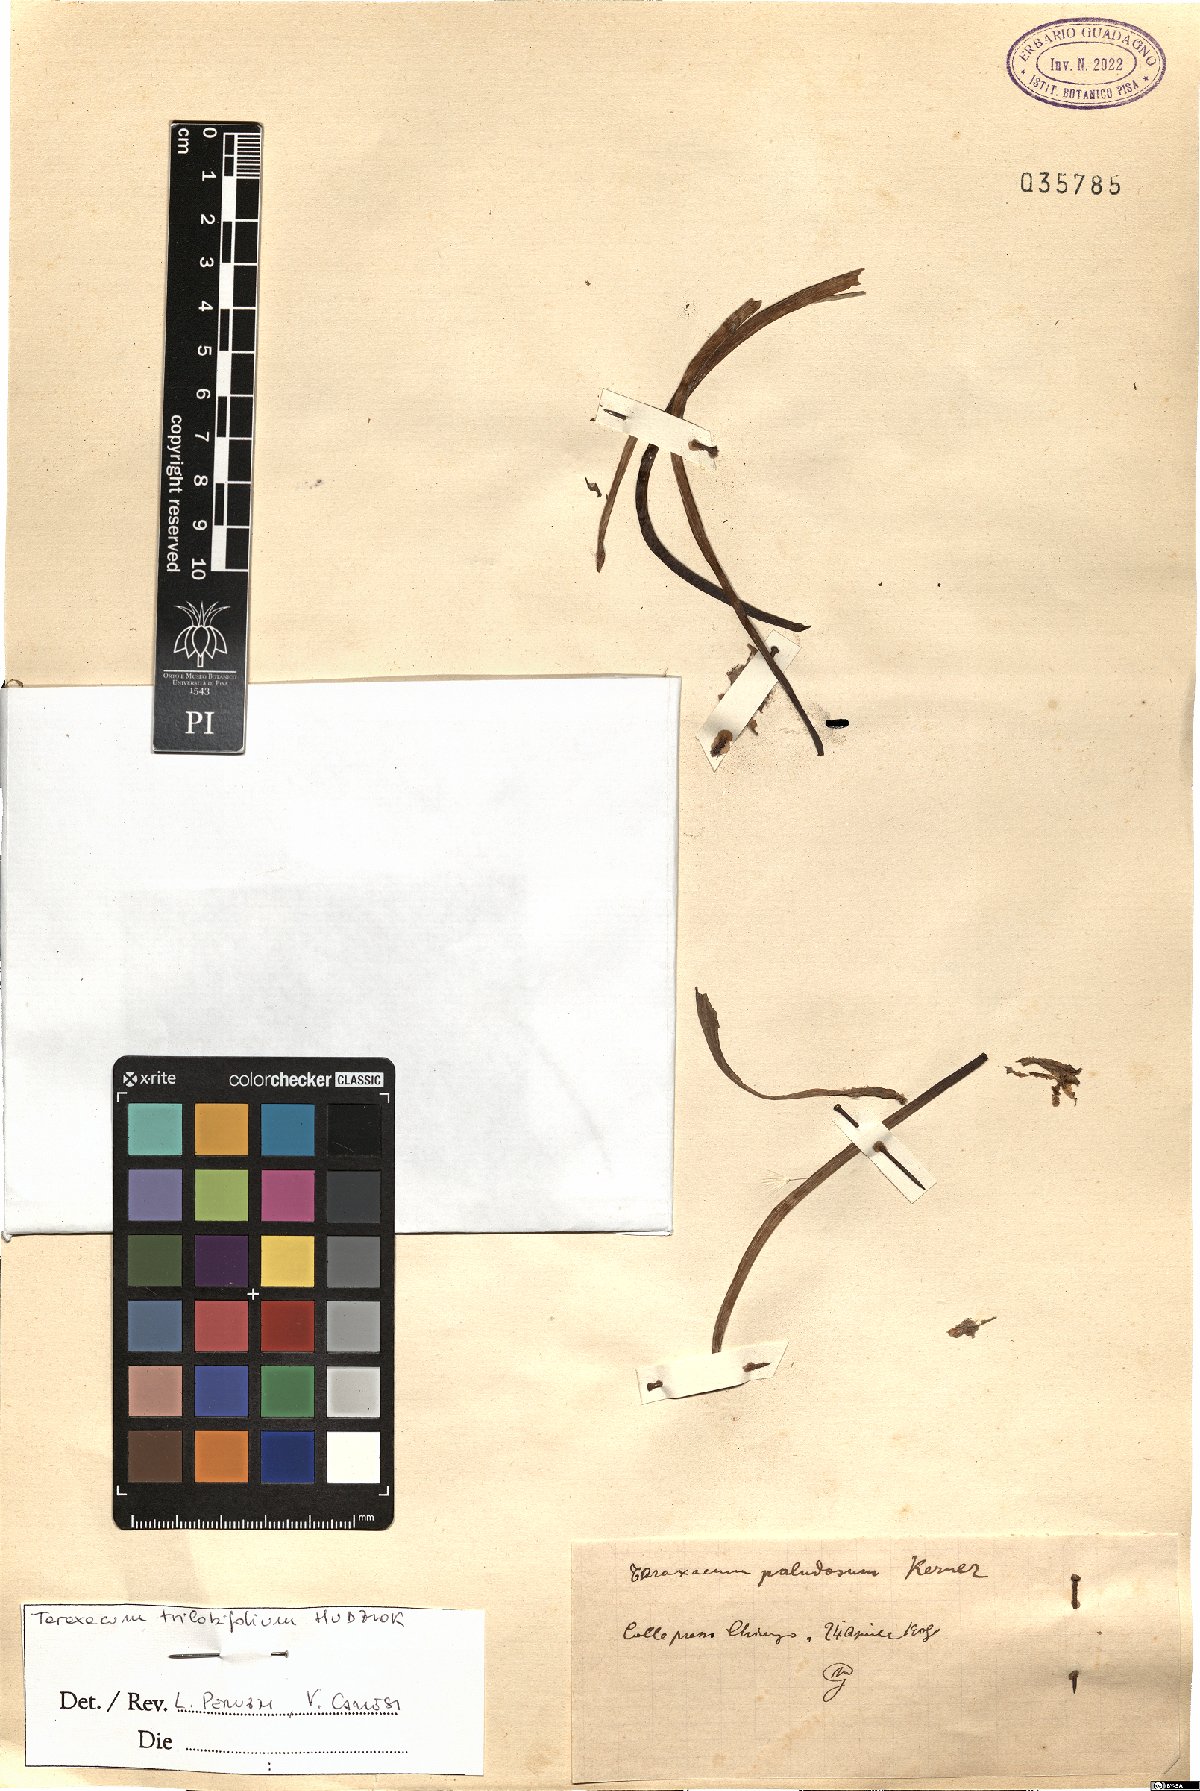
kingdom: Plantae
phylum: Tracheophyta
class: Magnoliopsida
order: Asterales
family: Asteraceae
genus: Taraxacum
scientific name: Taraxacum trilobifolium
